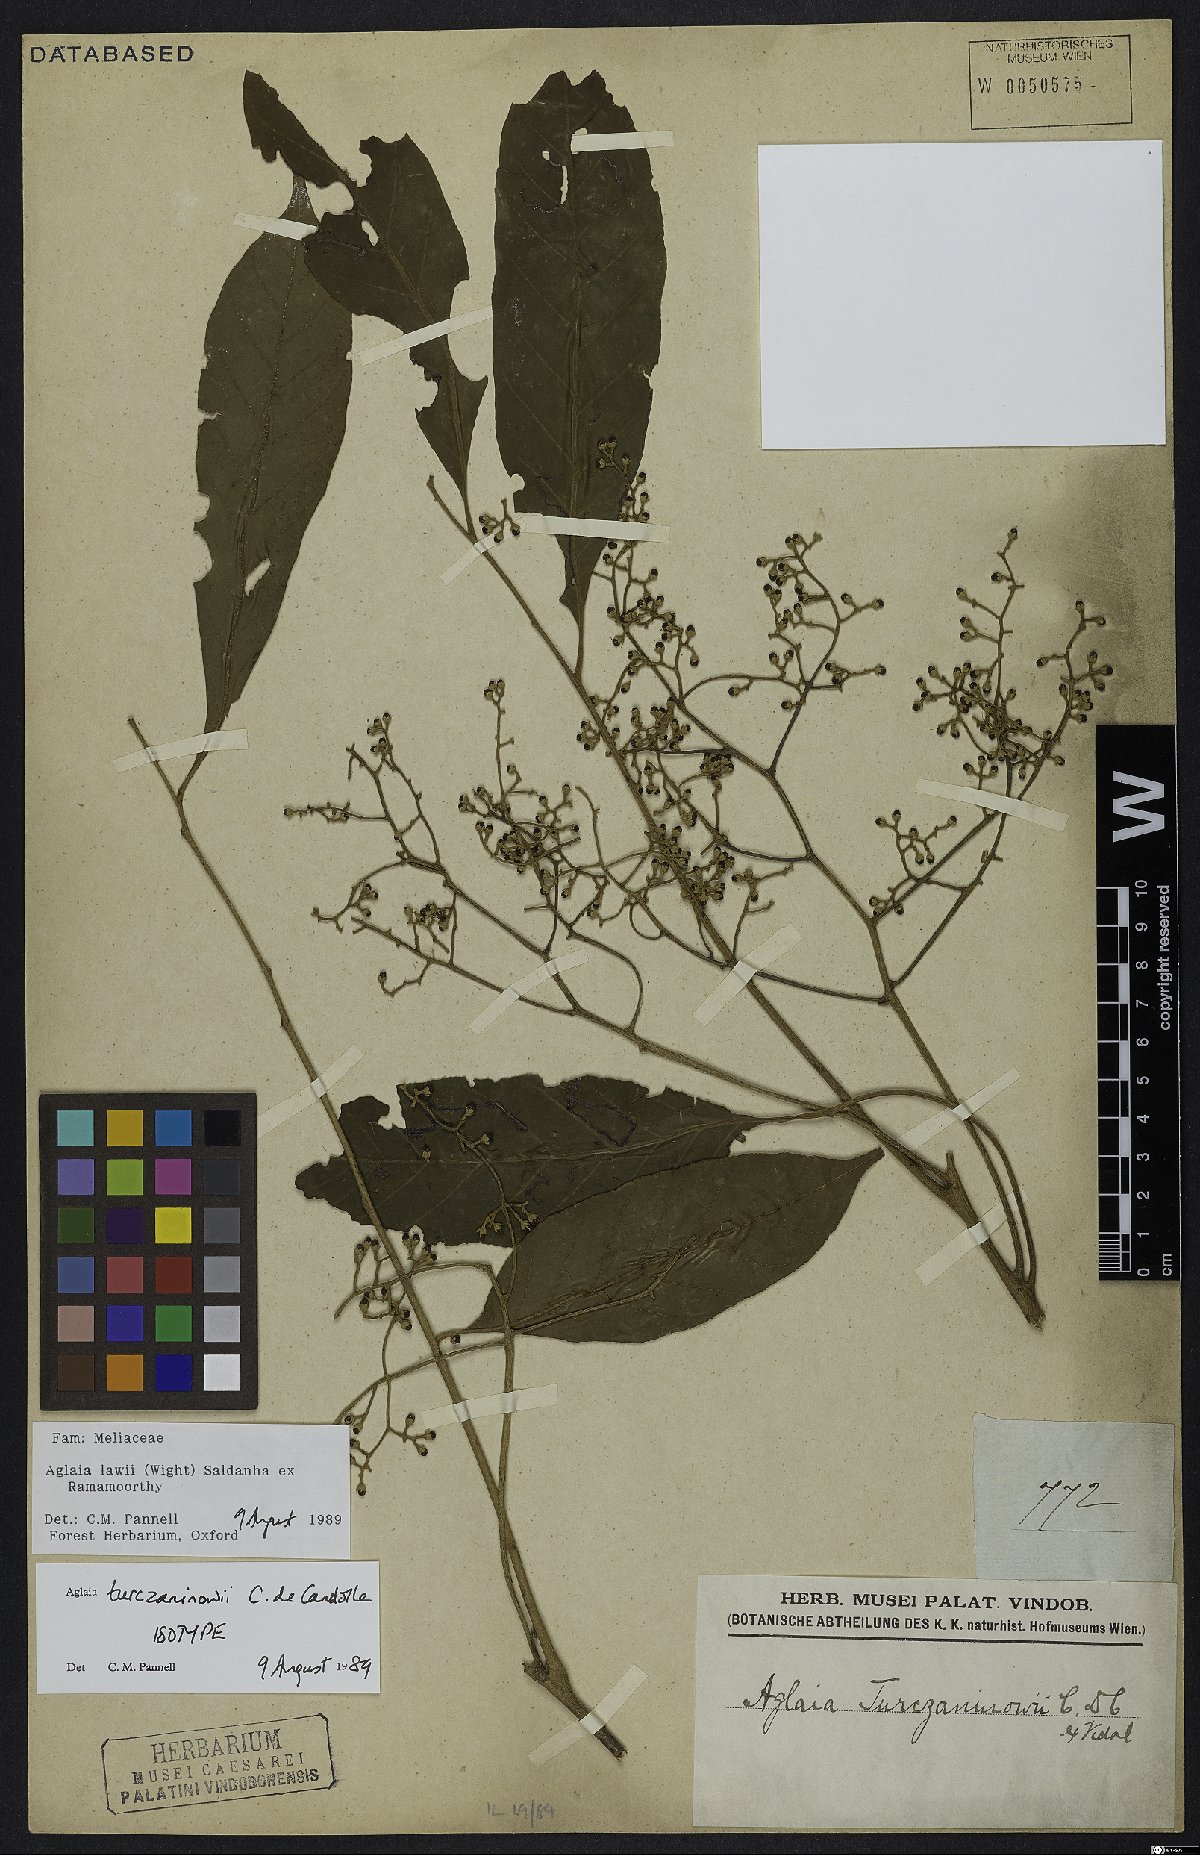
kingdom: Plantae
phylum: Tracheophyta
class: Magnoliopsida
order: Sapindales
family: Meliaceae
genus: Aglaia
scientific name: Aglaia lawii
